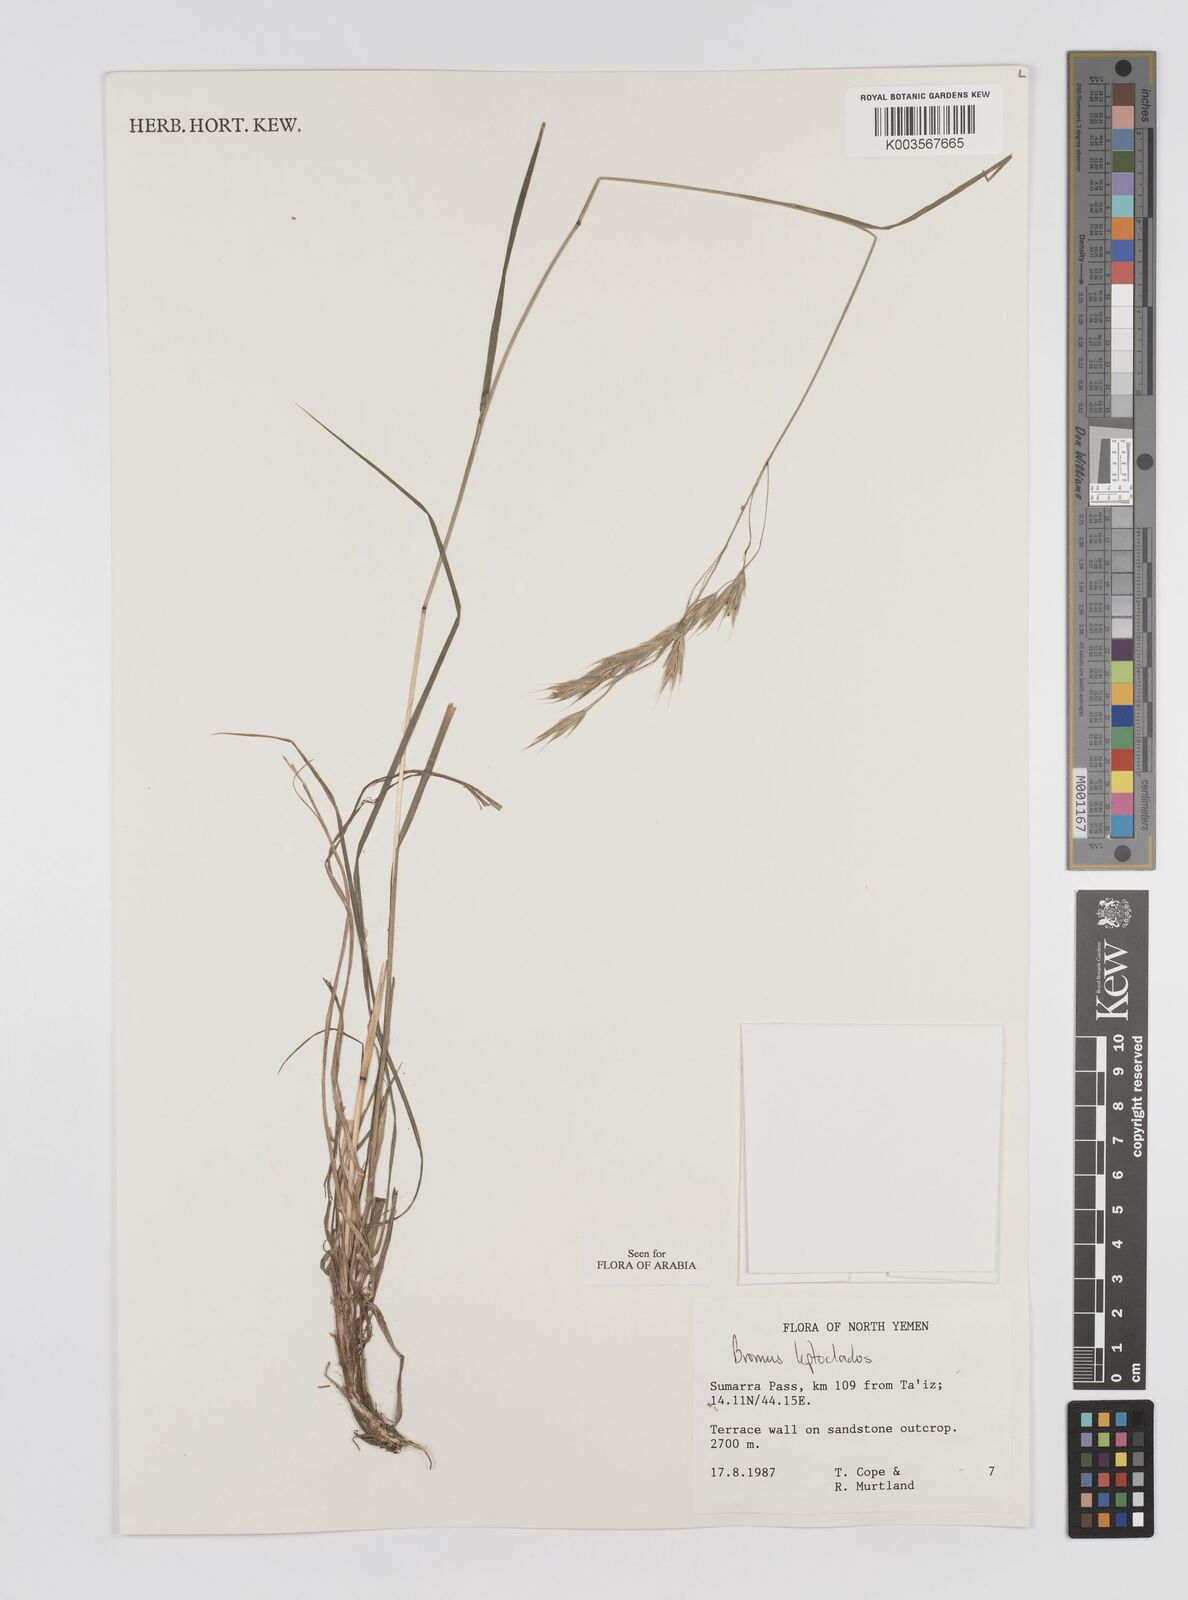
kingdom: Plantae
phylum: Tracheophyta
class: Liliopsida
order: Poales
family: Poaceae
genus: Bromus
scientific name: Bromus leptoclados
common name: Mountain bromegrass
